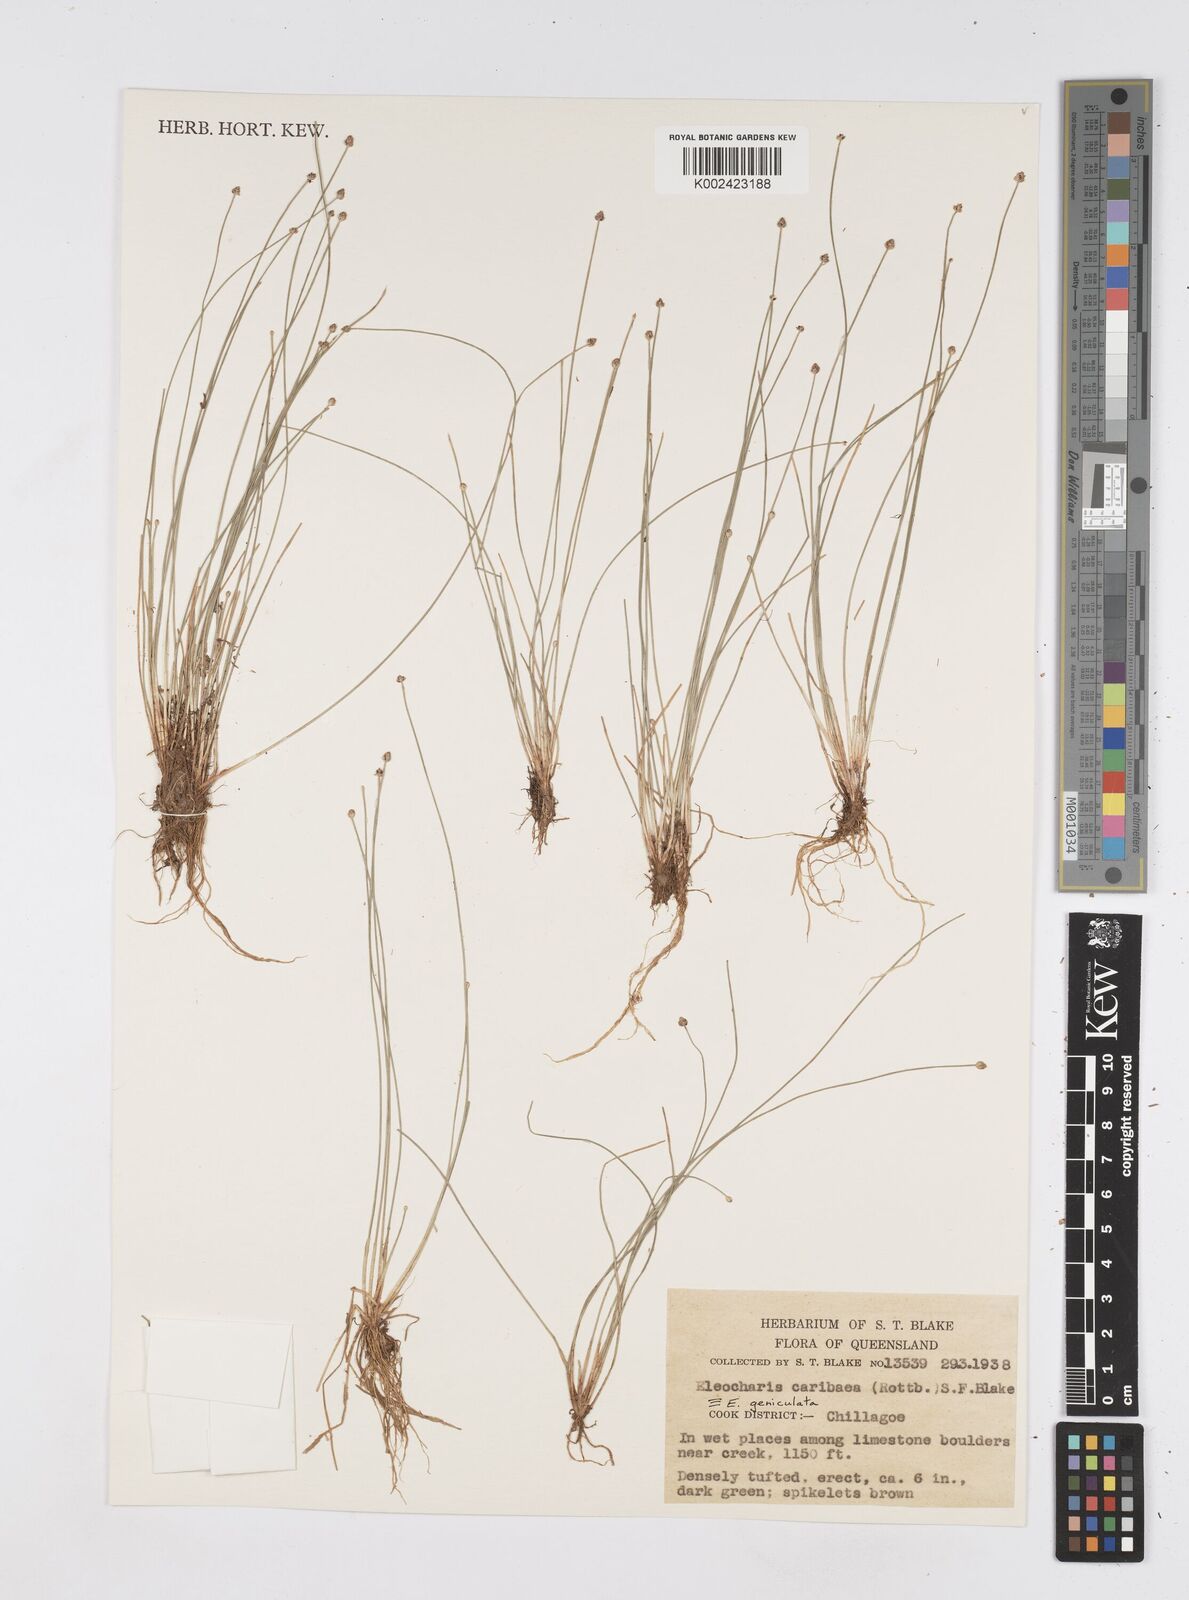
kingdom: Plantae
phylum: Tracheophyta
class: Liliopsida
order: Poales
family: Cyperaceae
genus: Eleocharis
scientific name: Eleocharis geniculata
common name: Canada spikesedge
